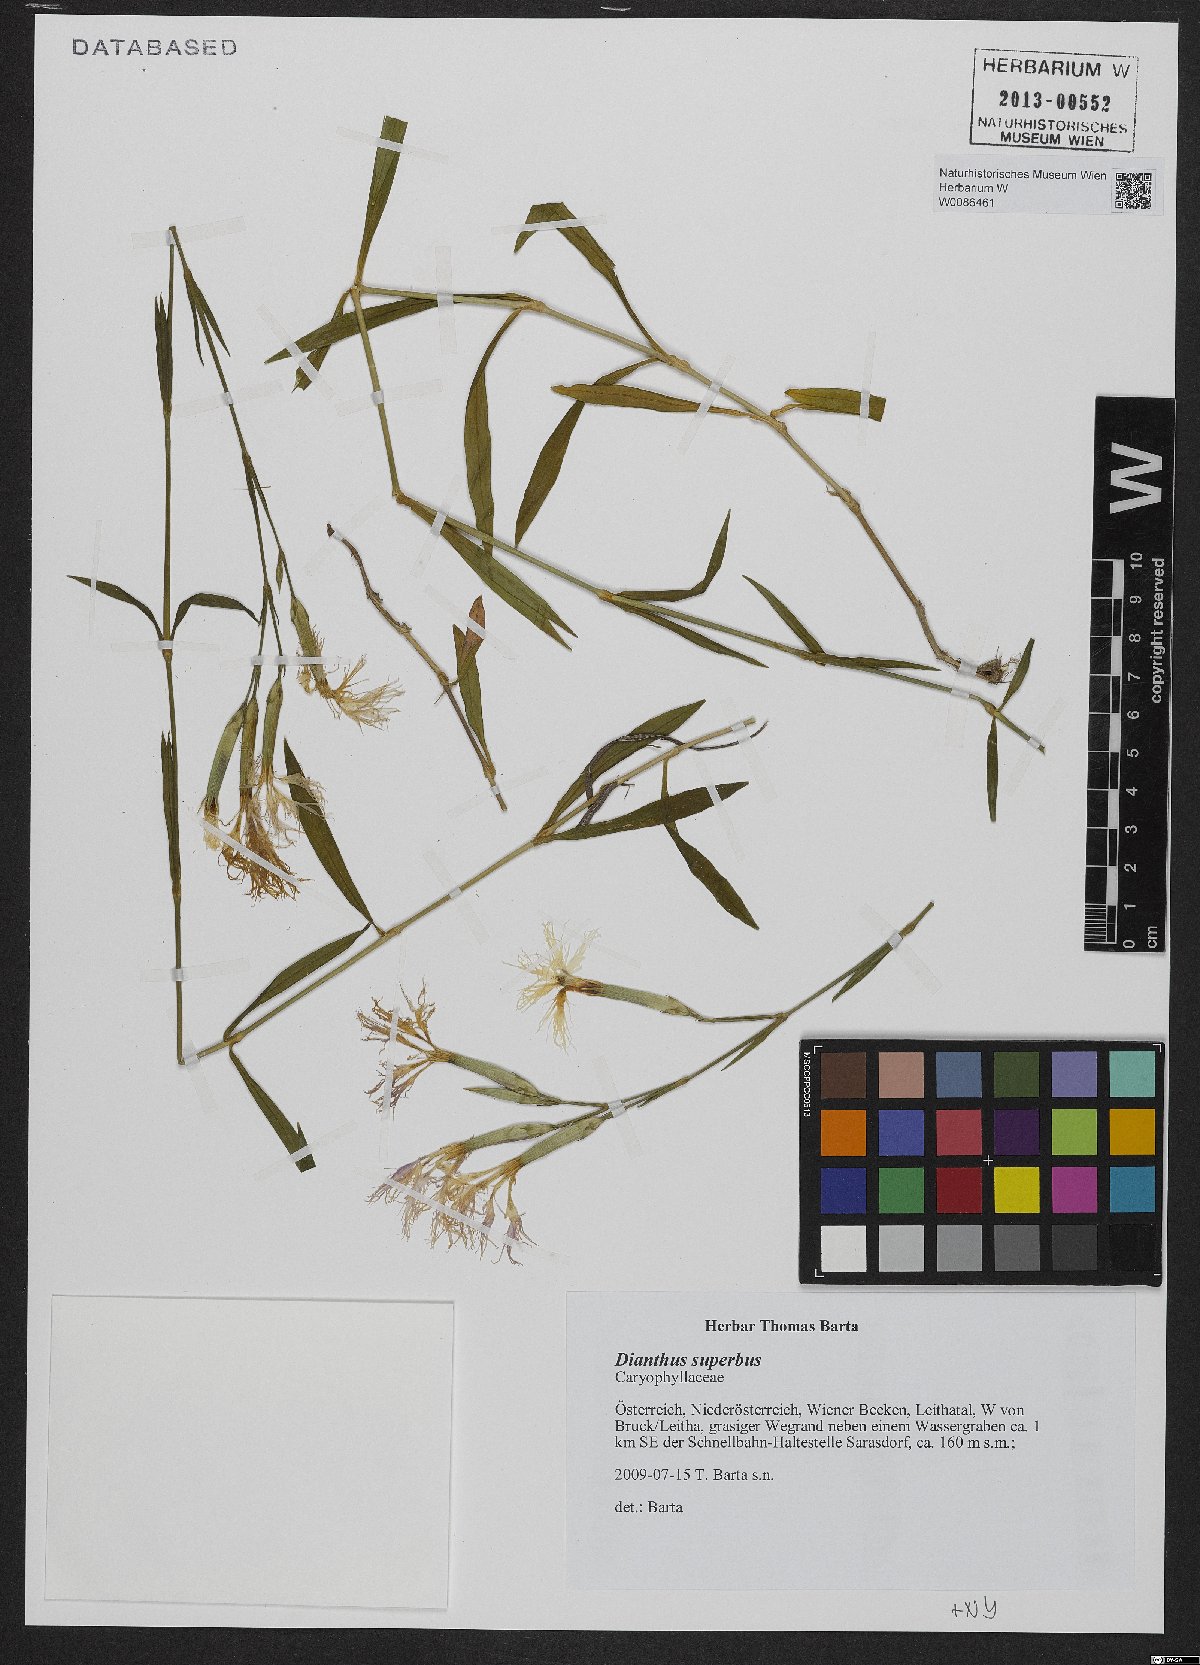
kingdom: Plantae
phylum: Tracheophyta
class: Magnoliopsida
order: Caryophyllales
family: Caryophyllaceae
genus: Dianthus
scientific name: Dianthus superbus
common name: Fringed pink
